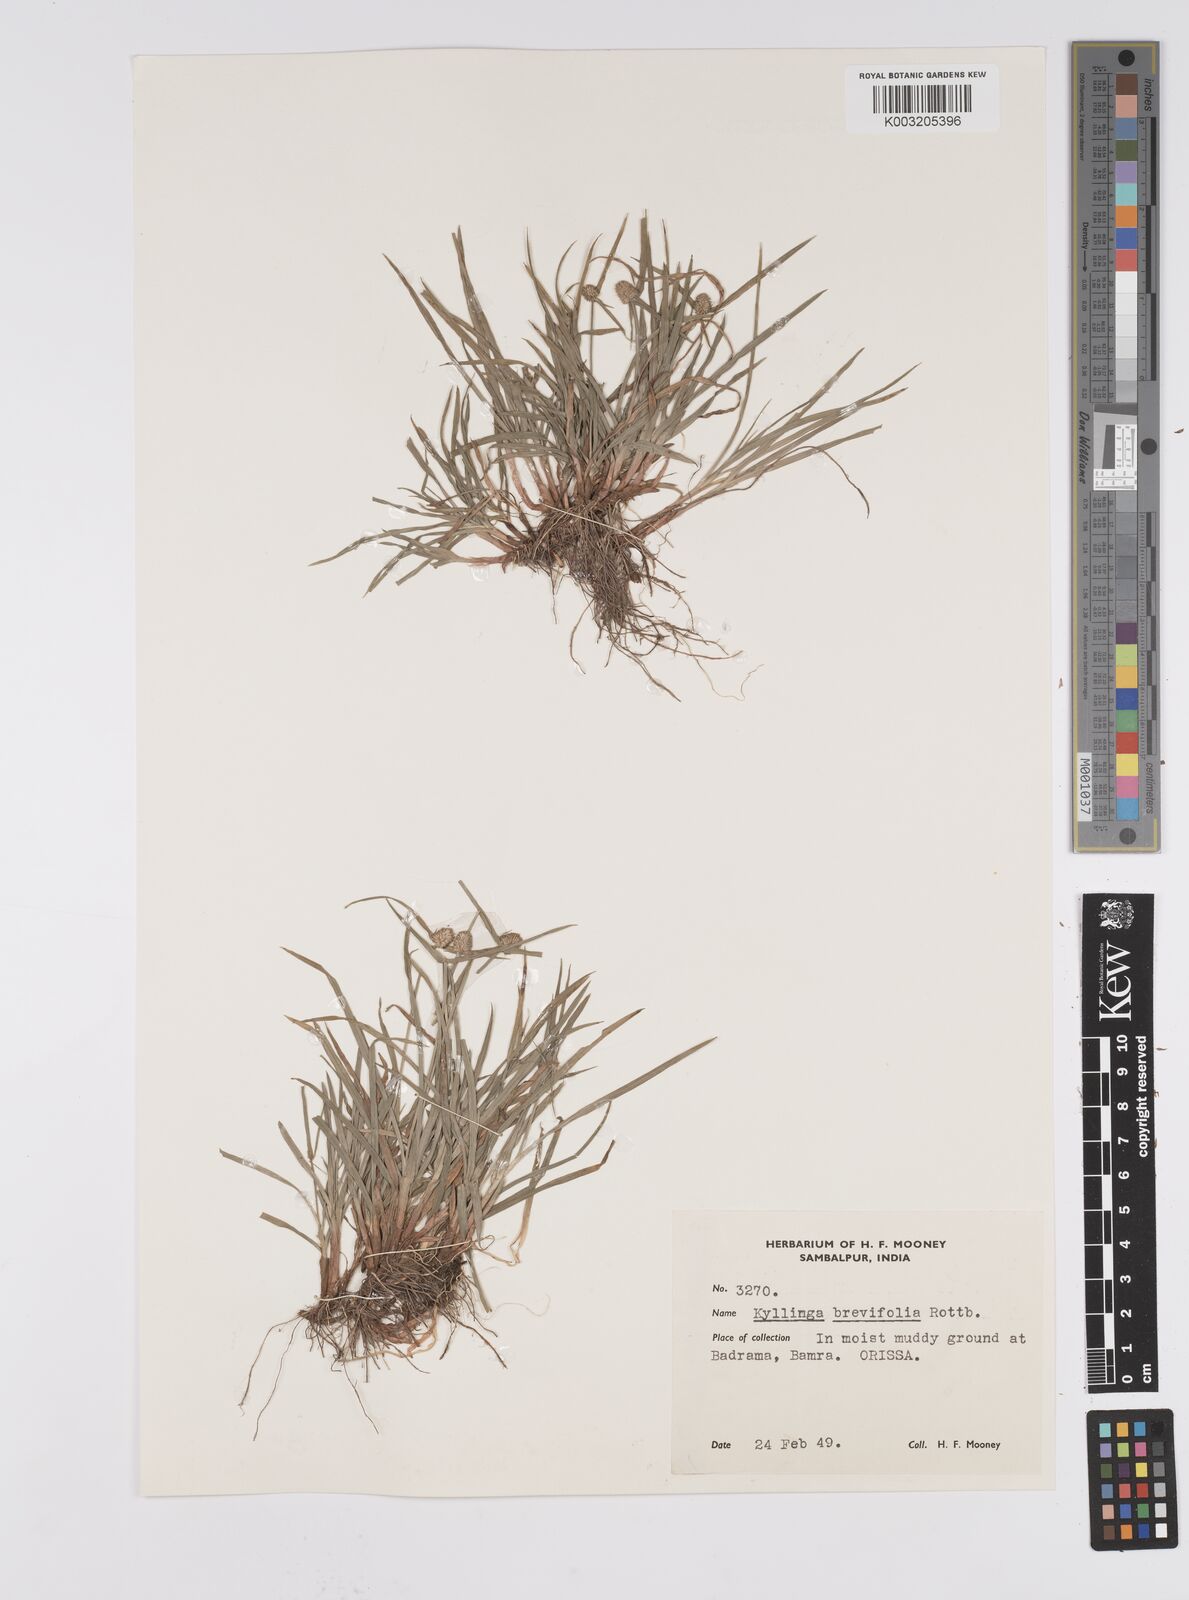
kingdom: Plantae
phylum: Tracheophyta
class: Liliopsida
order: Poales
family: Cyperaceae
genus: Cyperus
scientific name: Cyperus brevifolius
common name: Globe kyllinga
